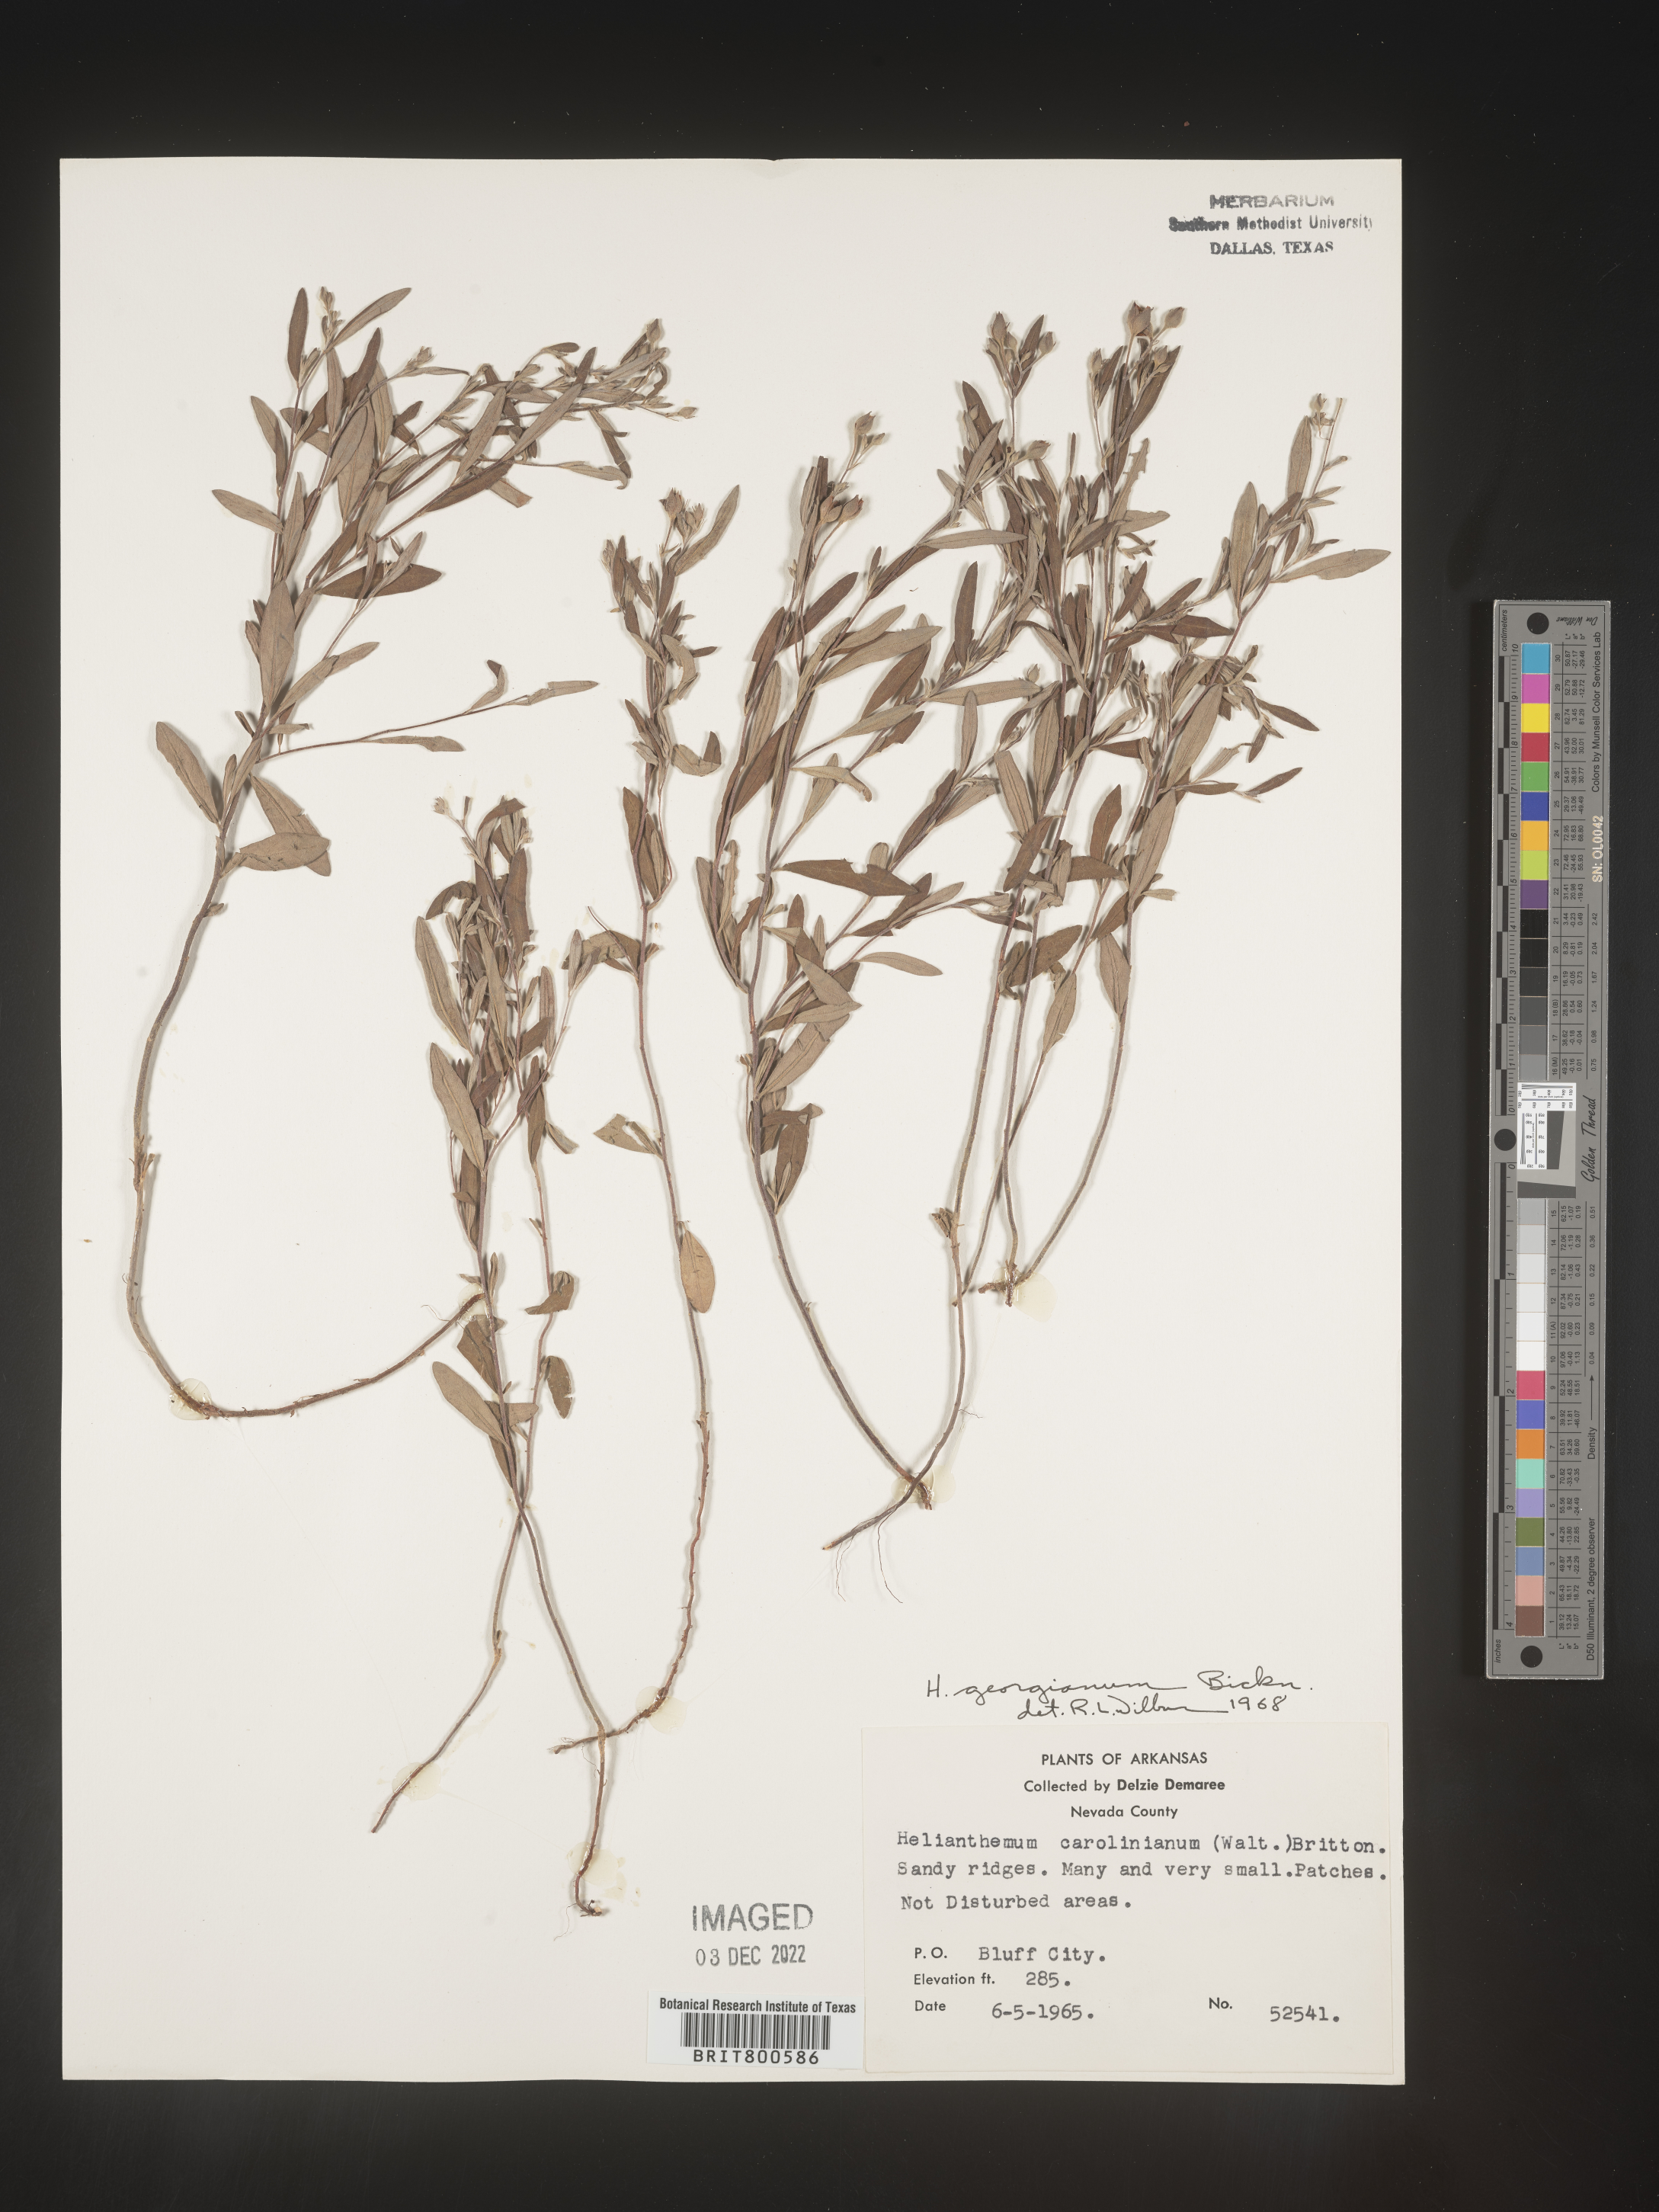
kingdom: Plantae
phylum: Tracheophyta
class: Magnoliopsida
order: Malvales
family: Cistaceae
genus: Crocanthemum
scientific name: Crocanthemum georgianum
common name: Georgia frostweed
